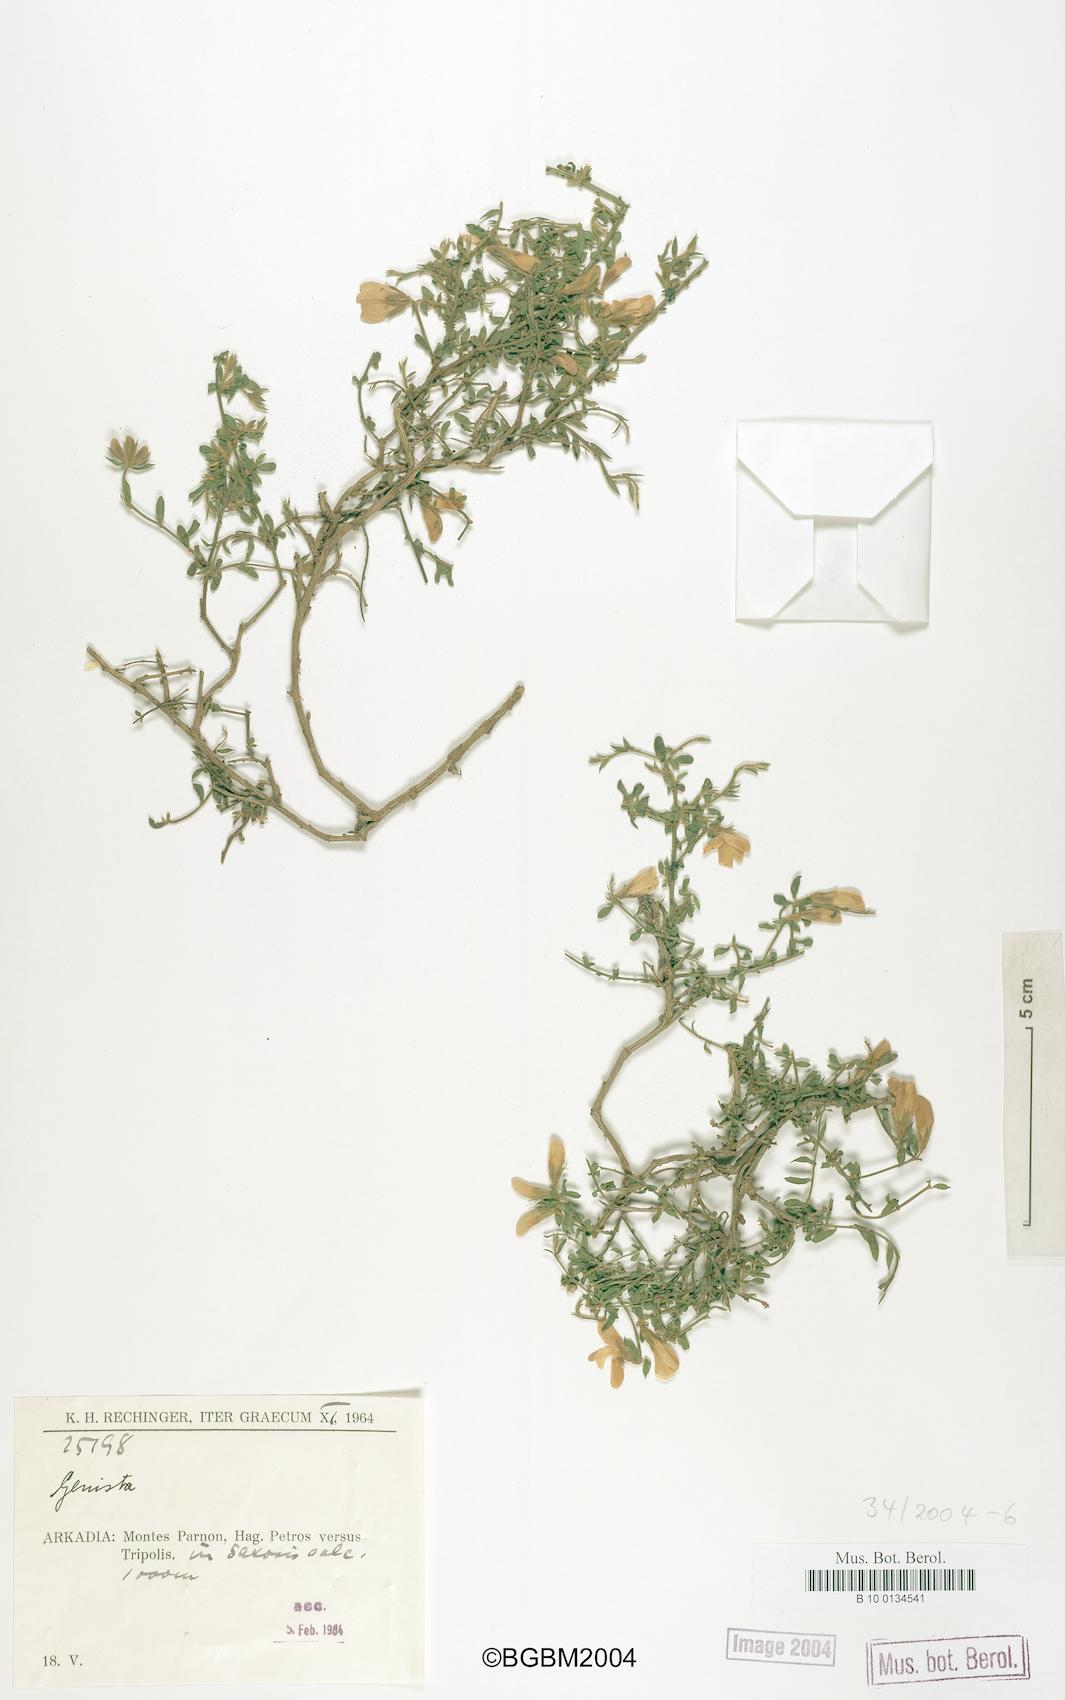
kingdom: Plantae
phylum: Tracheophyta
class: Magnoliopsida
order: Fabales
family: Fabaceae
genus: Genista
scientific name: Genista
